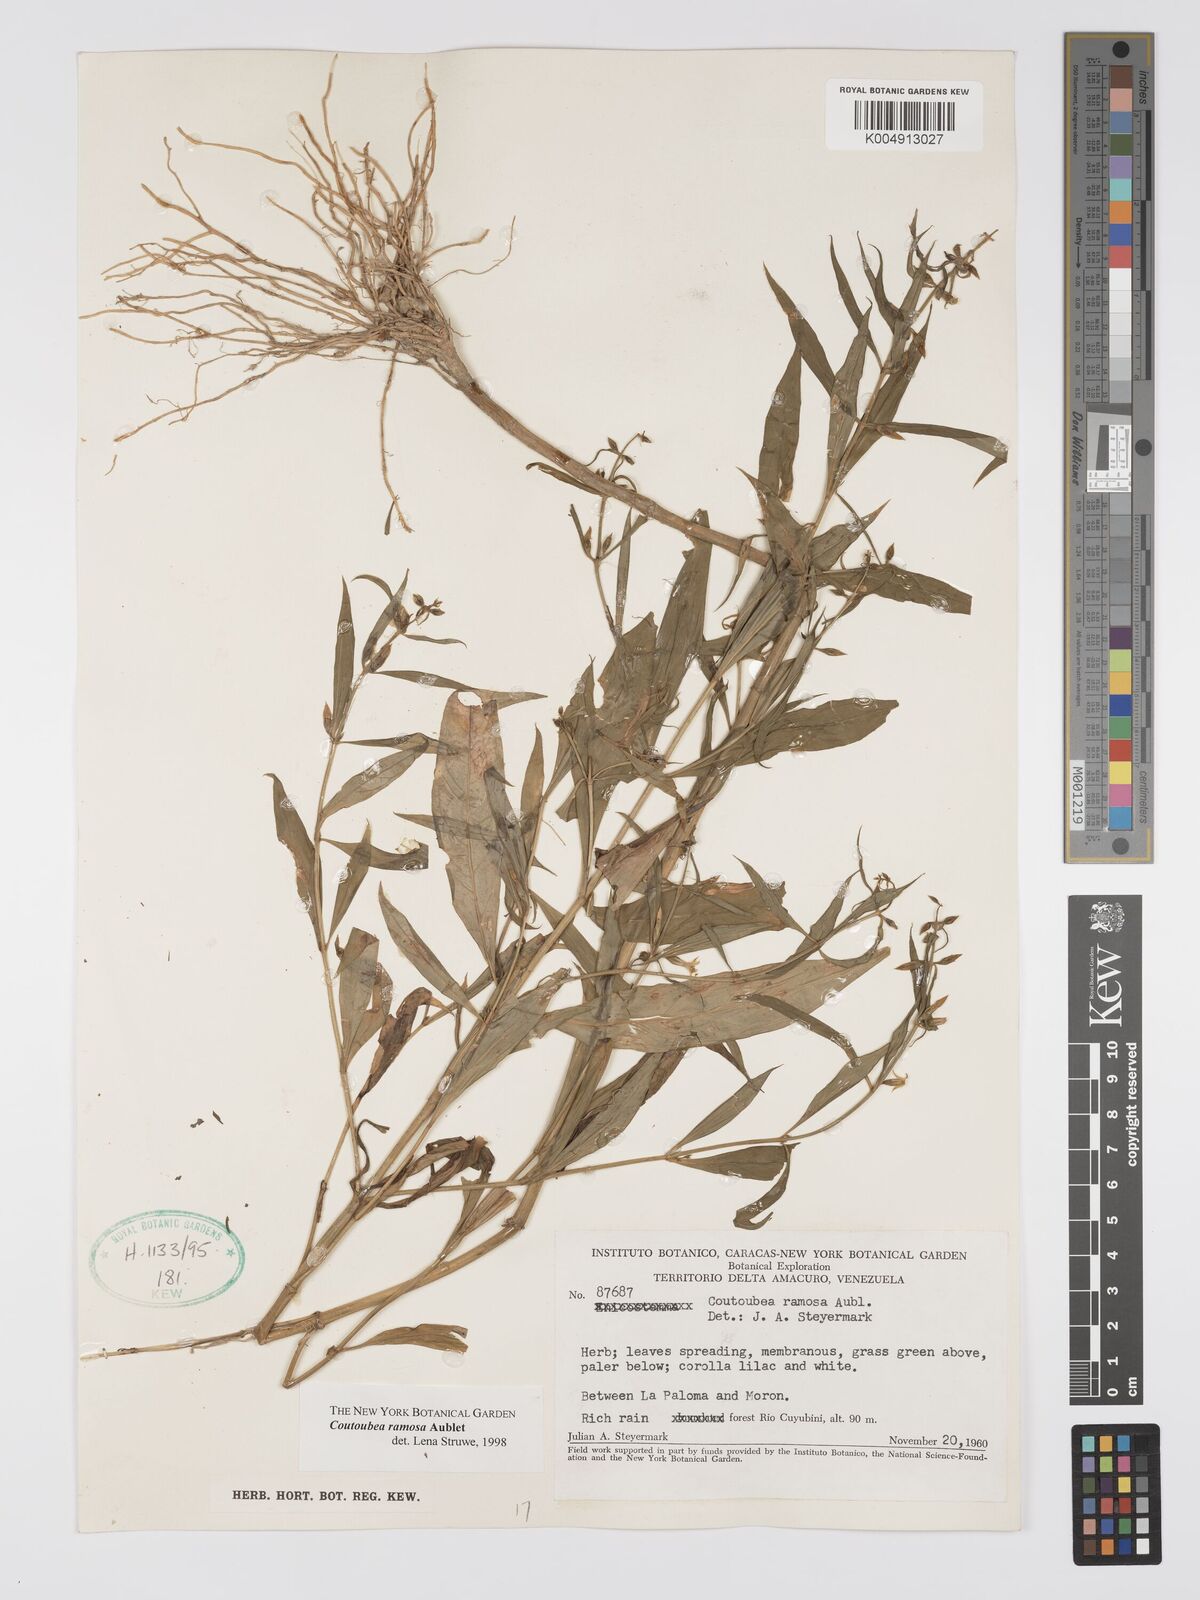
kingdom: Plantae
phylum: Tracheophyta
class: Magnoliopsida
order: Gentianales
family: Gentianaceae
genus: Coutoubea
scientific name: Coutoubea ramosa
